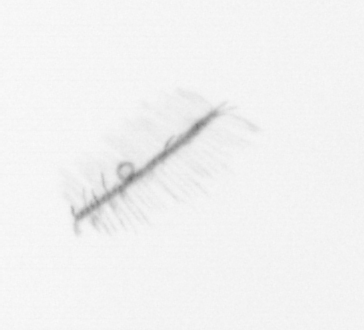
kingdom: Chromista
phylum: Ochrophyta
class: Bacillariophyceae
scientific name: Bacillariophyceae
